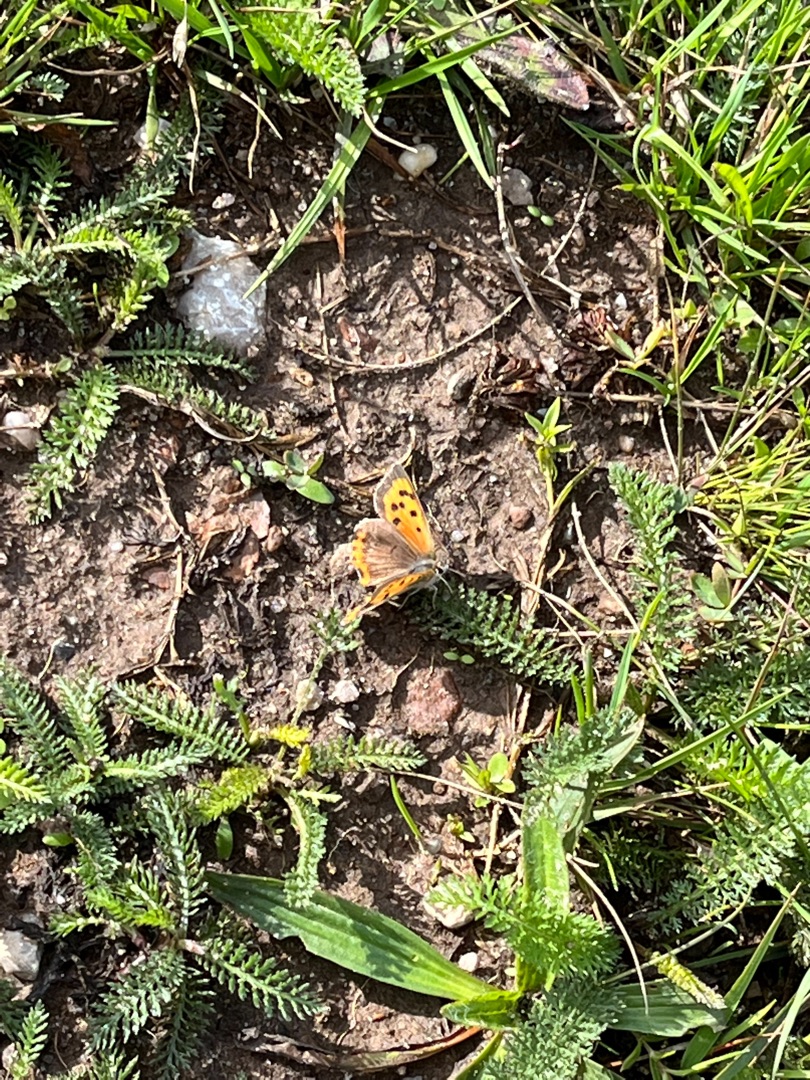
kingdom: Animalia
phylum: Arthropoda
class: Insecta
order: Lepidoptera
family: Lycaenidae
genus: Lycaena
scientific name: Lycaena phlaeas
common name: Lille ildfugl
